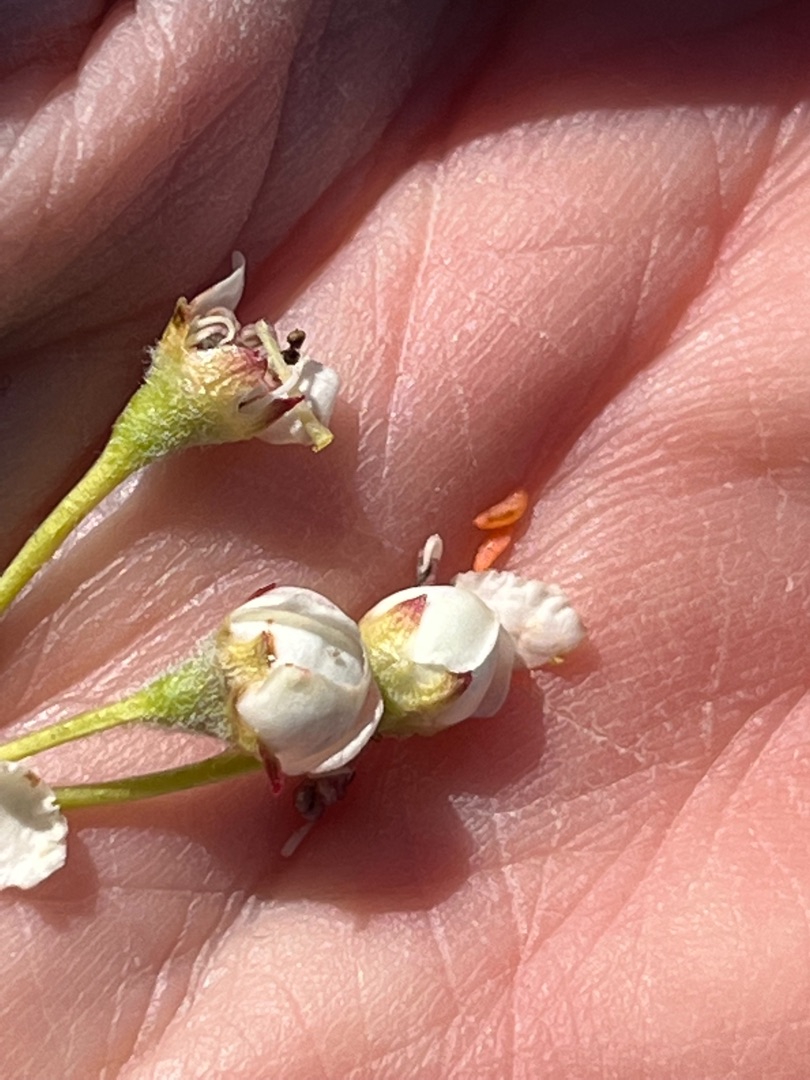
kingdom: Animalia
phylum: Arthropoda
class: Insecta
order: Diptera
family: Cecidomyiidae
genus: Dasineura
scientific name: Dasineura oxyacanthae
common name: Rød tjørneblomstgalmyg
